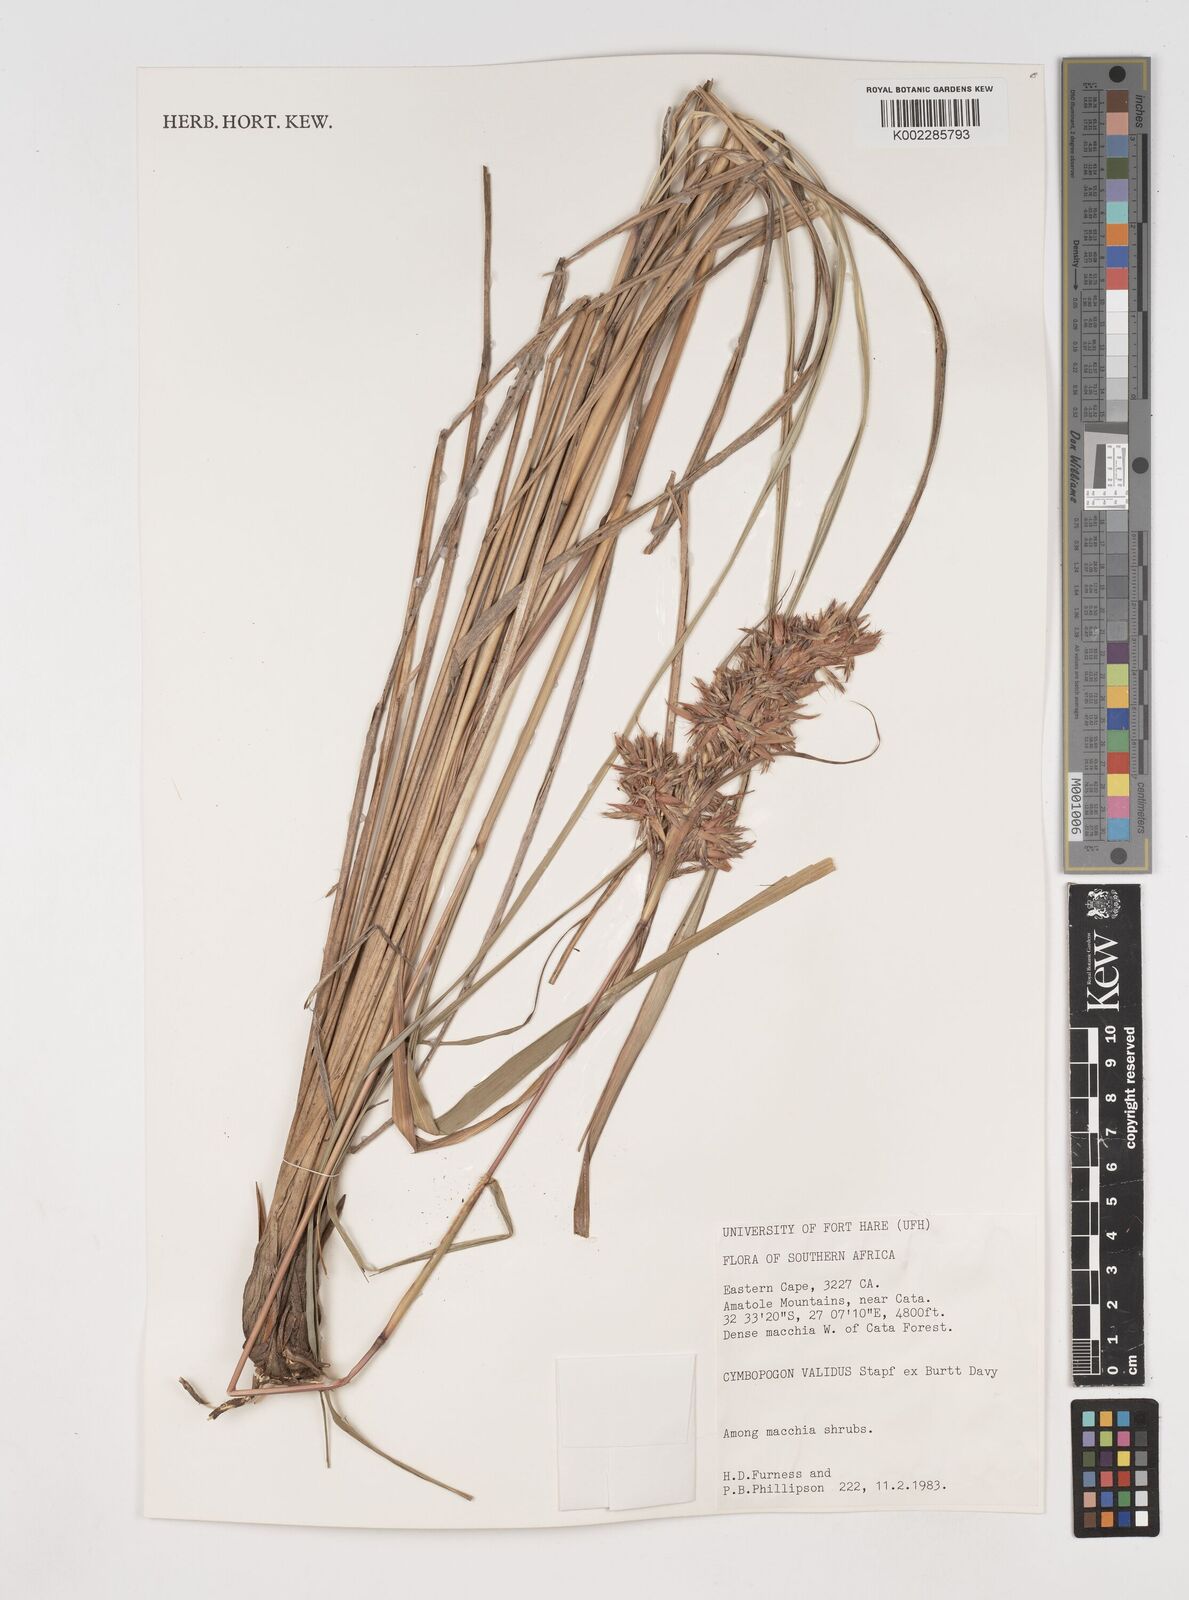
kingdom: Plantae
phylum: Tracheophyta
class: Liliopsida
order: Poales
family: Poaceae
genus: Cymbopogon
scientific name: Cymbopogon nardus
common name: Giant turpentine grass
